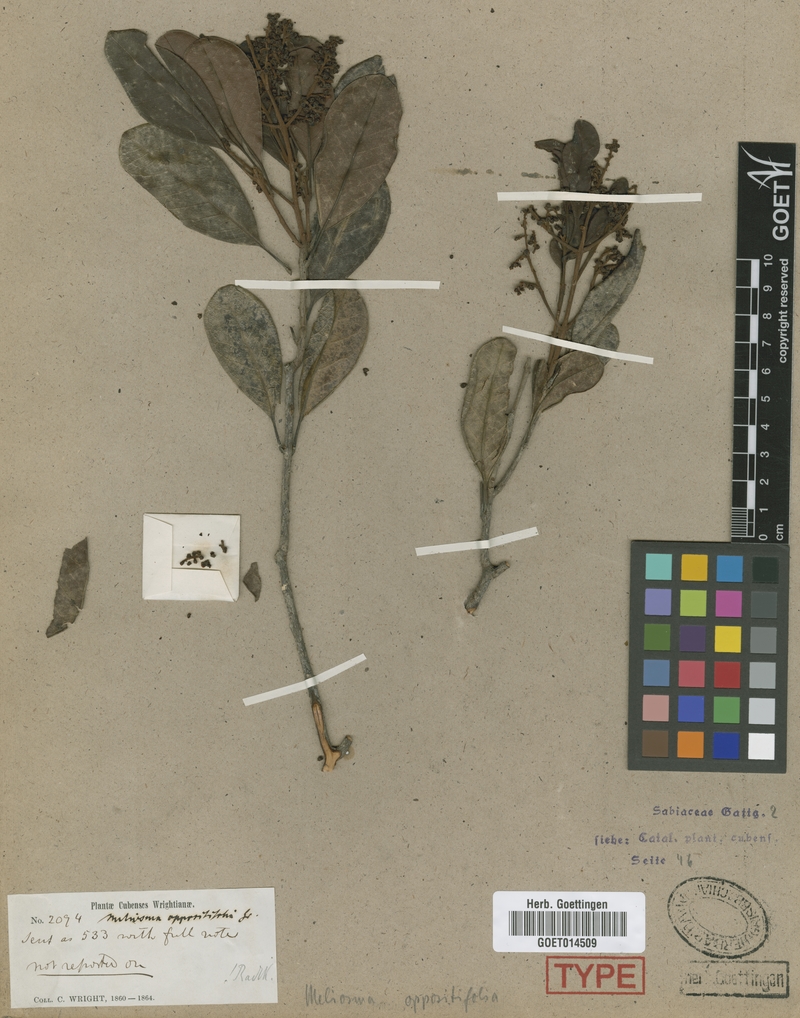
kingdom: Plantae
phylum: Tracheophyta
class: Magnoliopsida
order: Proteales
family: Sabiaceae
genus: Meliosma
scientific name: Meliosma oppositifolia
